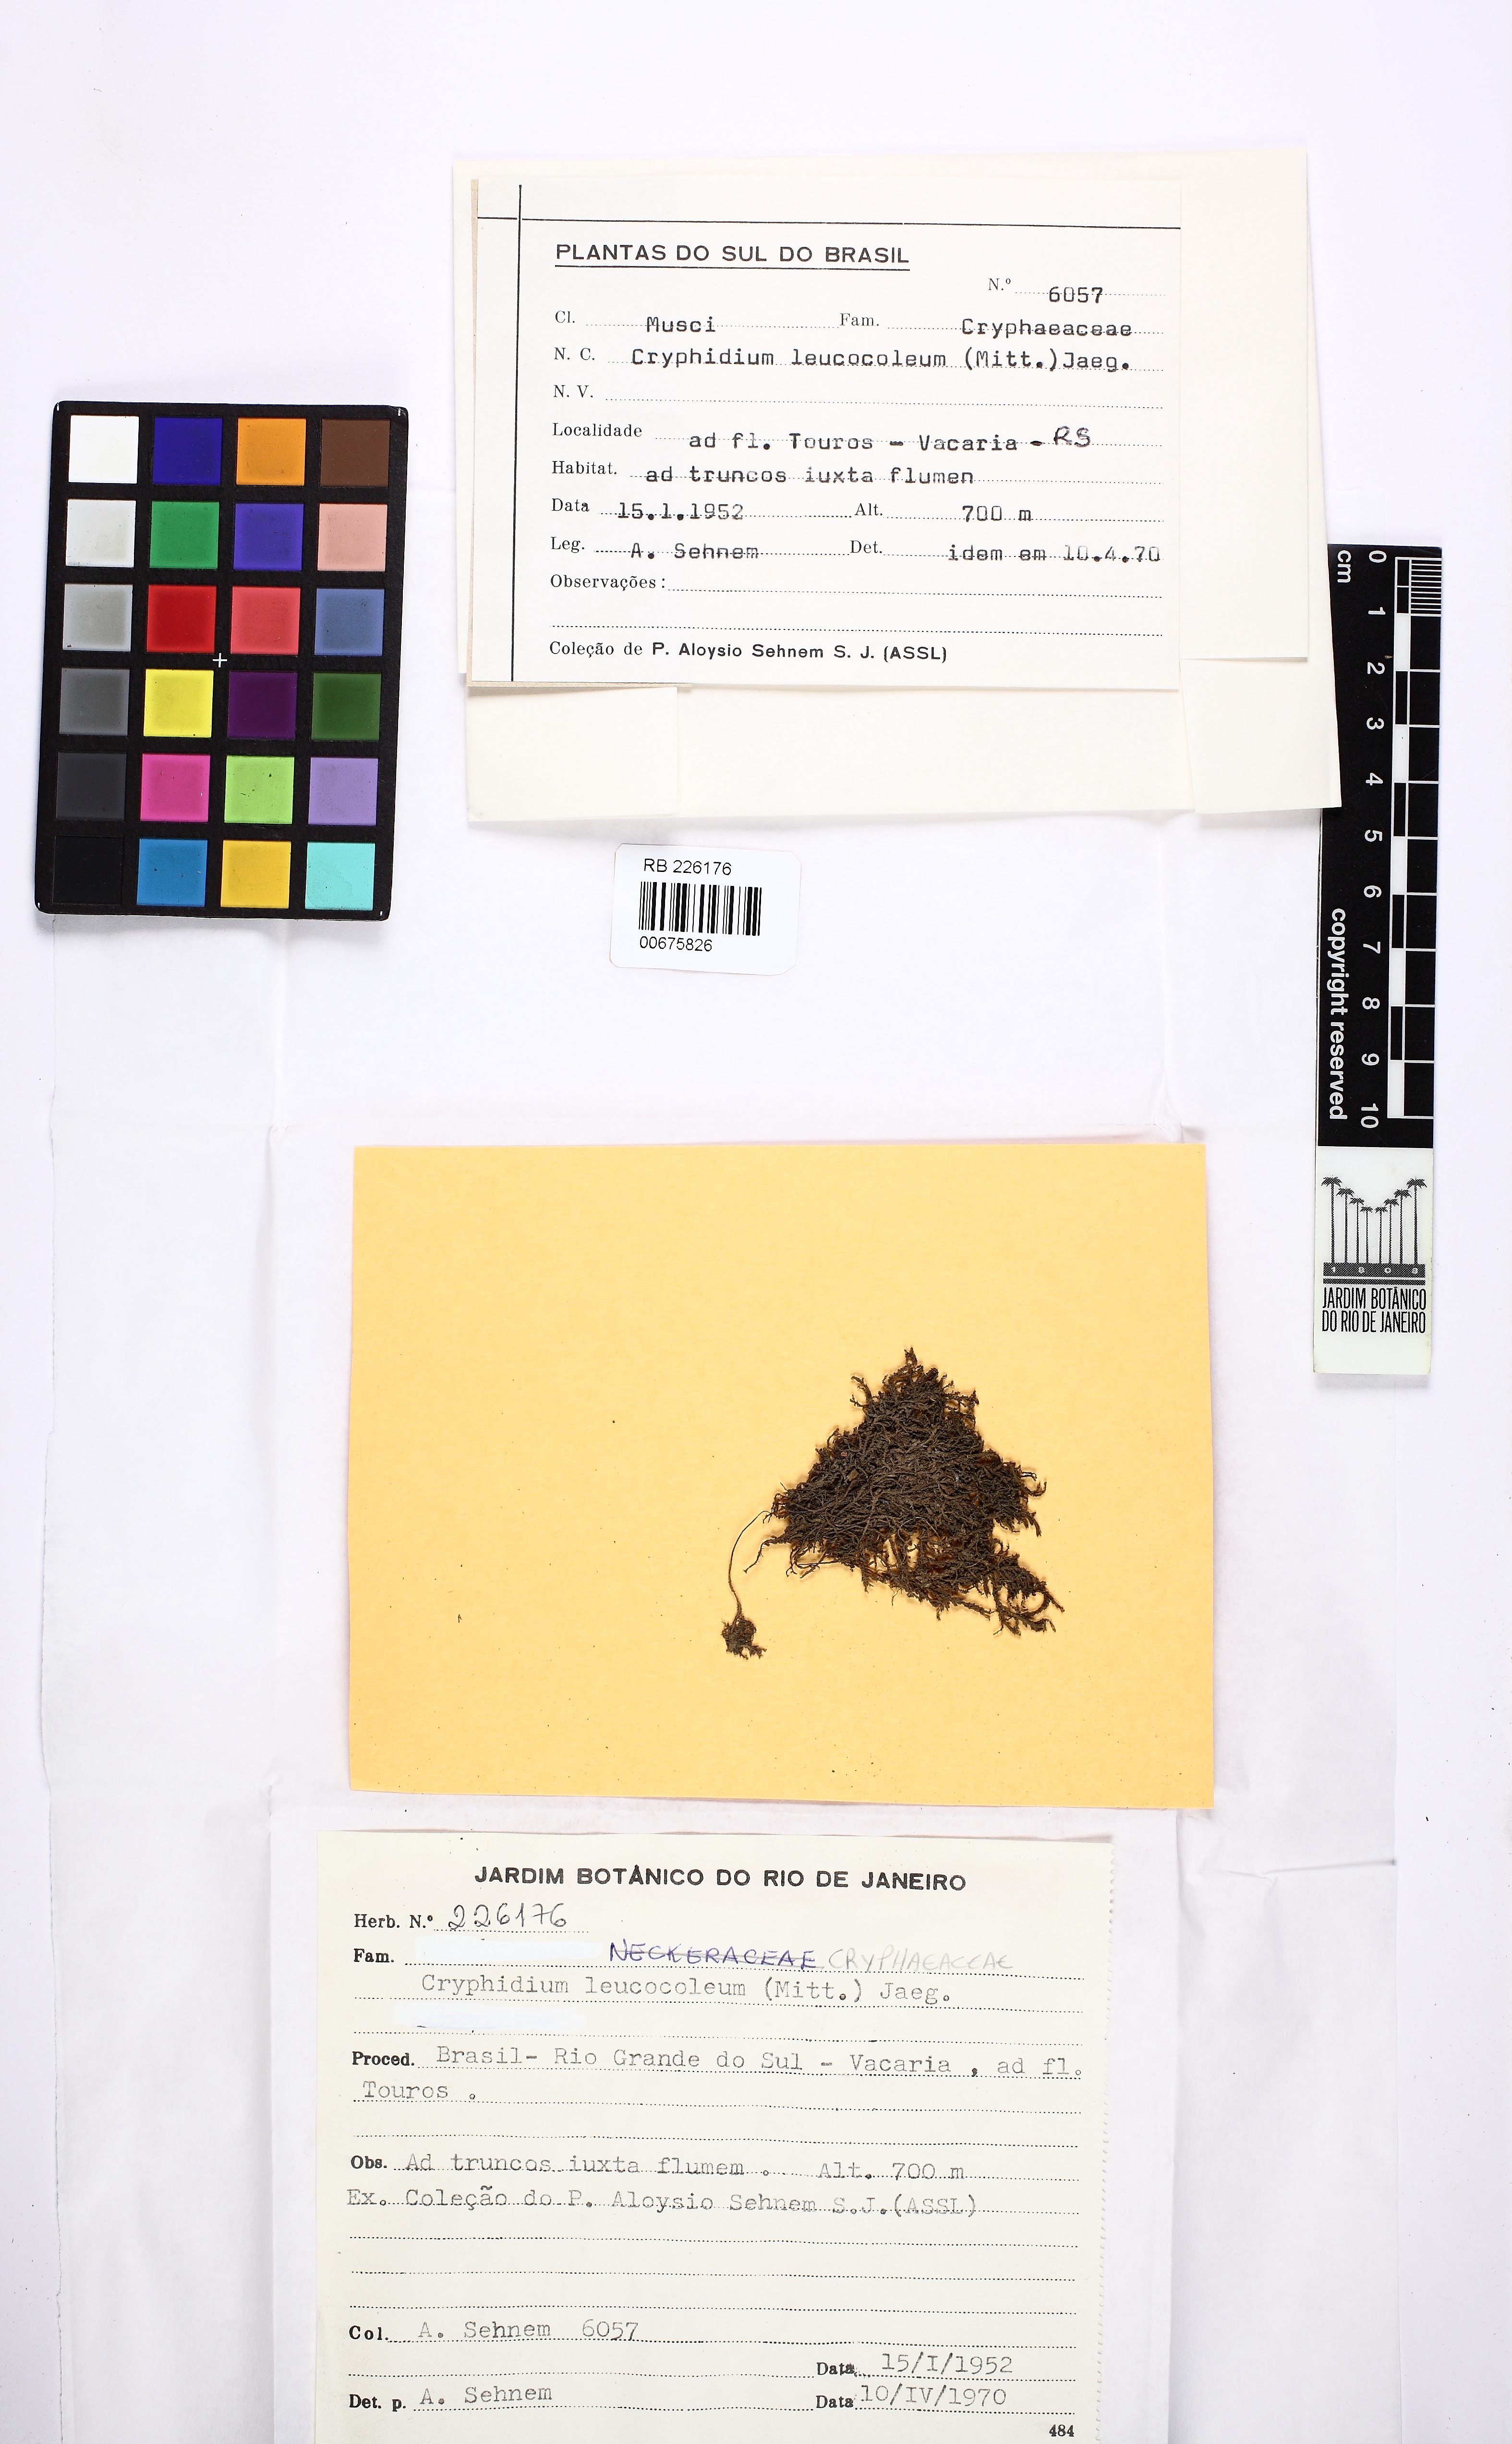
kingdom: Plantae
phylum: Bryophyta
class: Bryopsida
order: Hypnales
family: Cryphaeaceae
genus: Cryphidium
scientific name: Cryphidium leucocoleum
